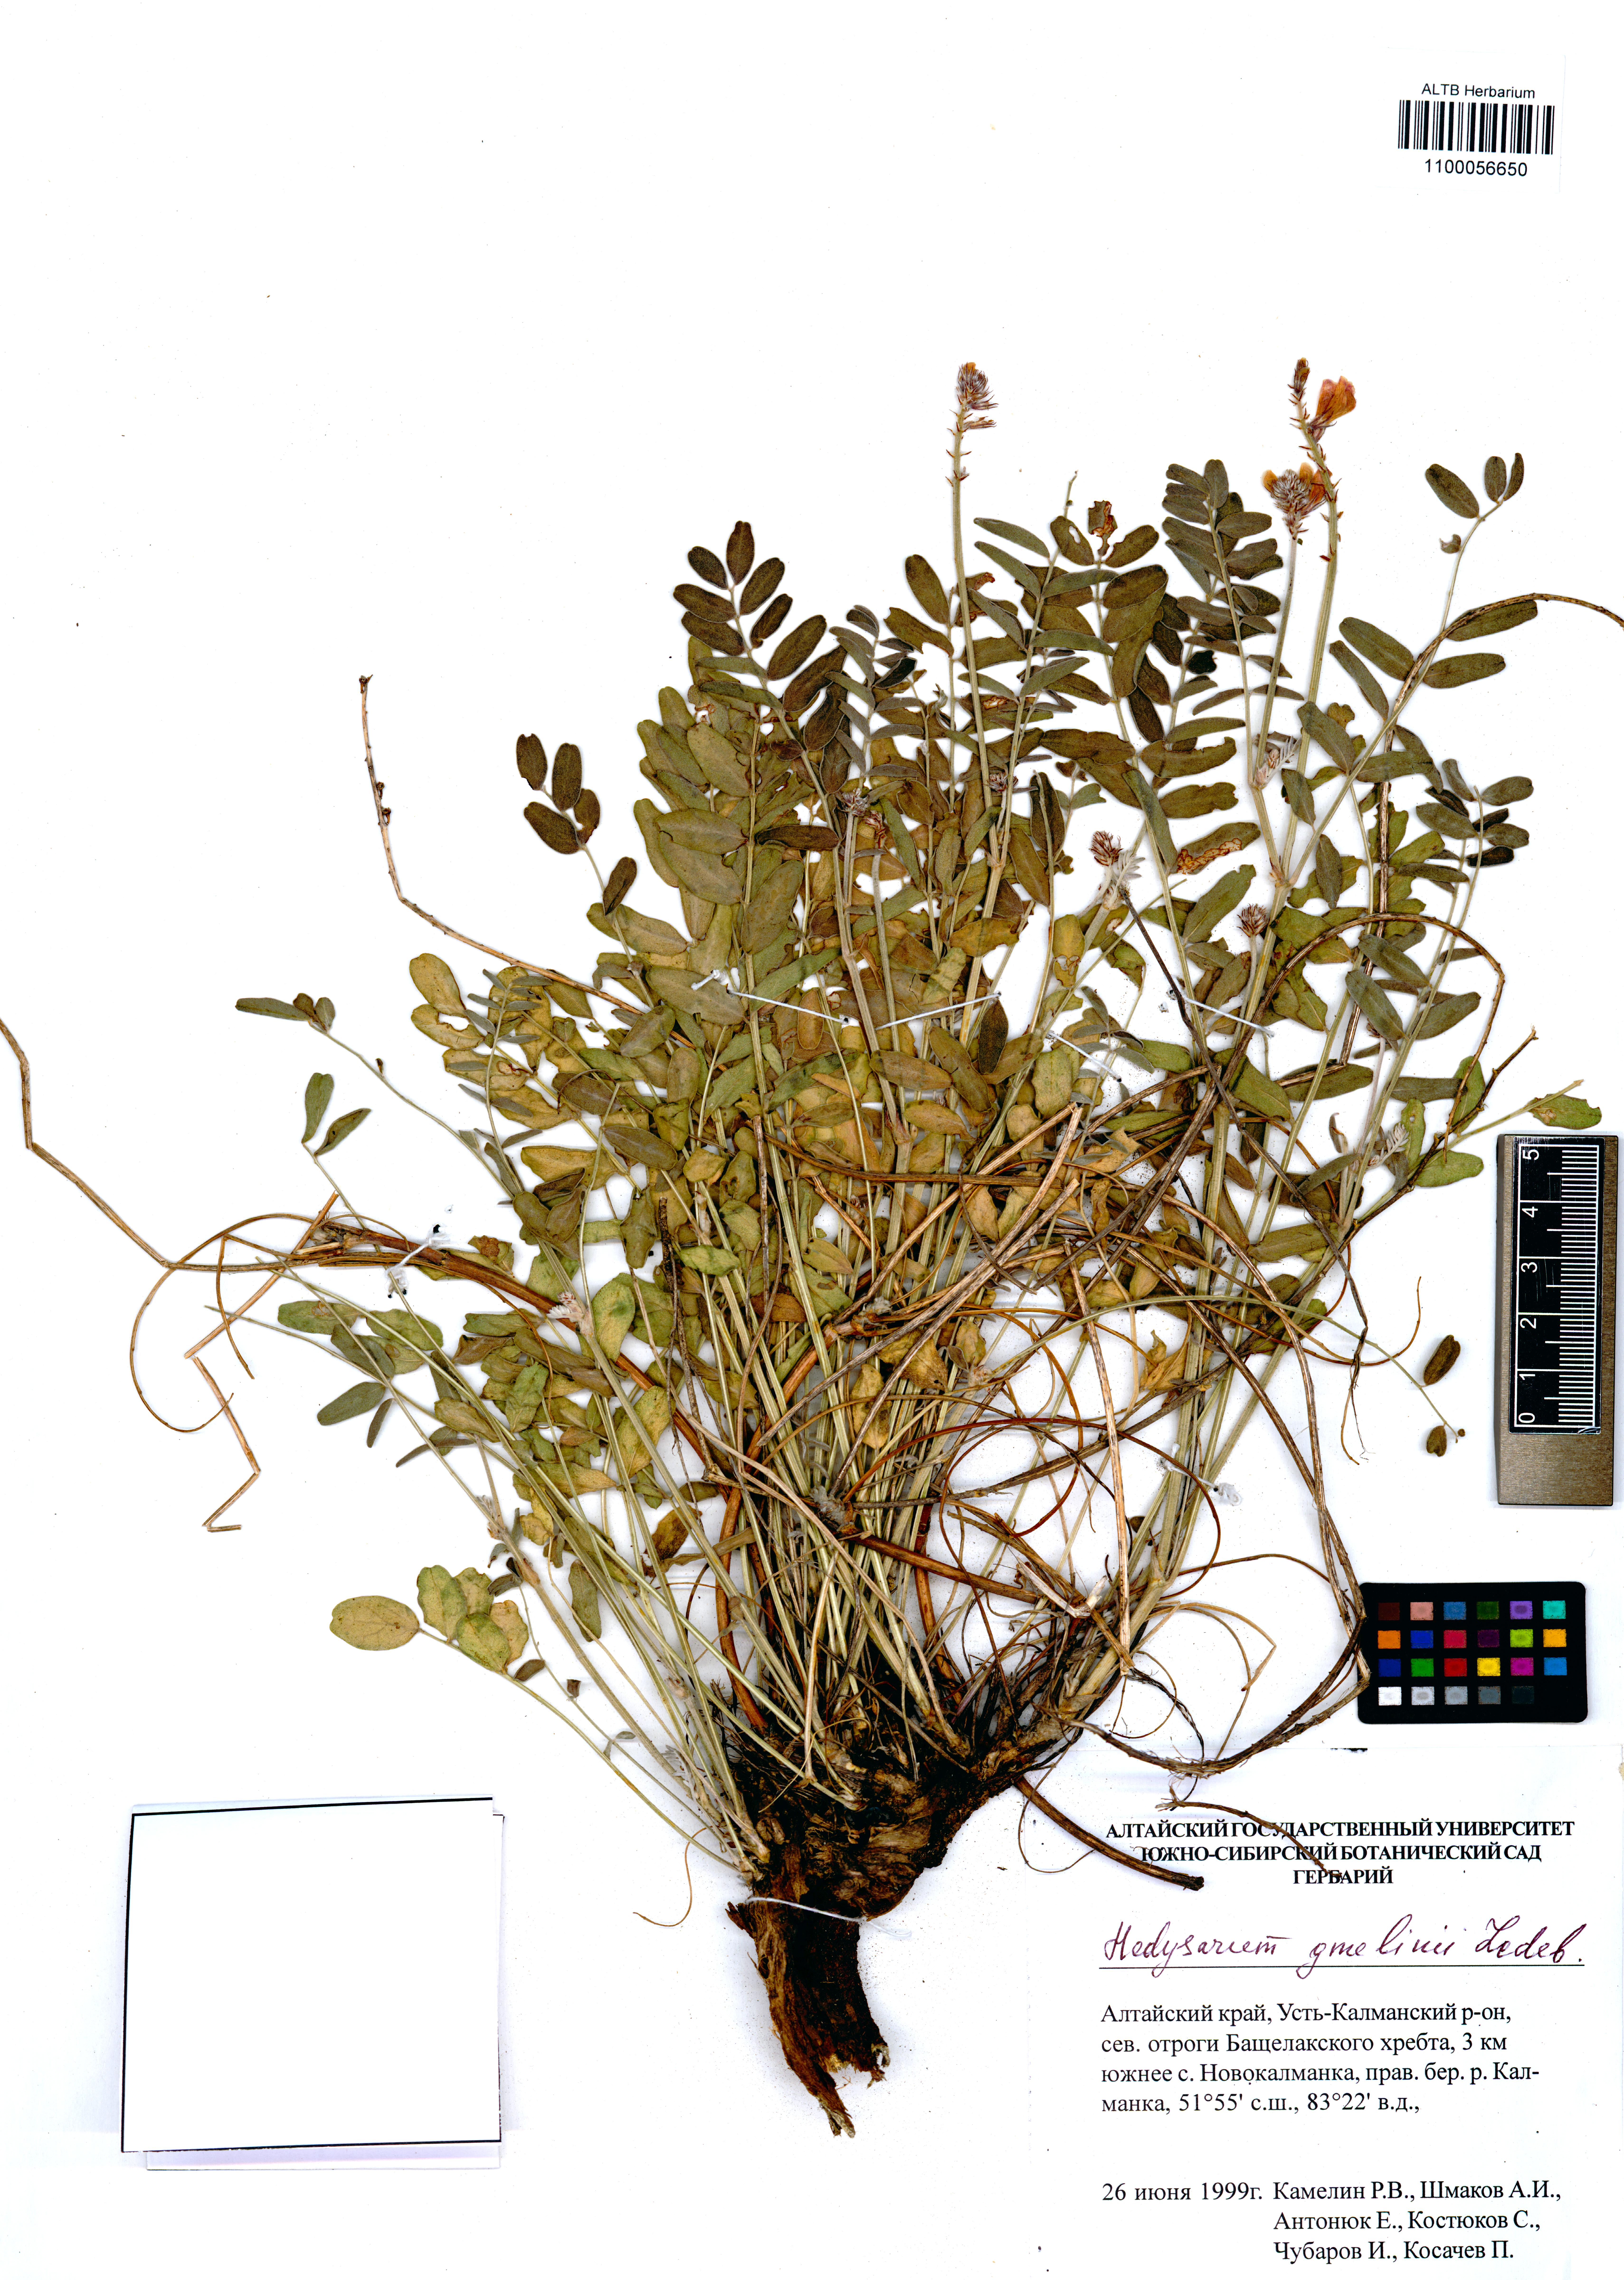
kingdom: Plantae
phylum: Tracheophyta
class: Magnoliopsida
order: Fabales
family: Fabaceae
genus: Hedysarum
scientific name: Hedysarum gmelinii
